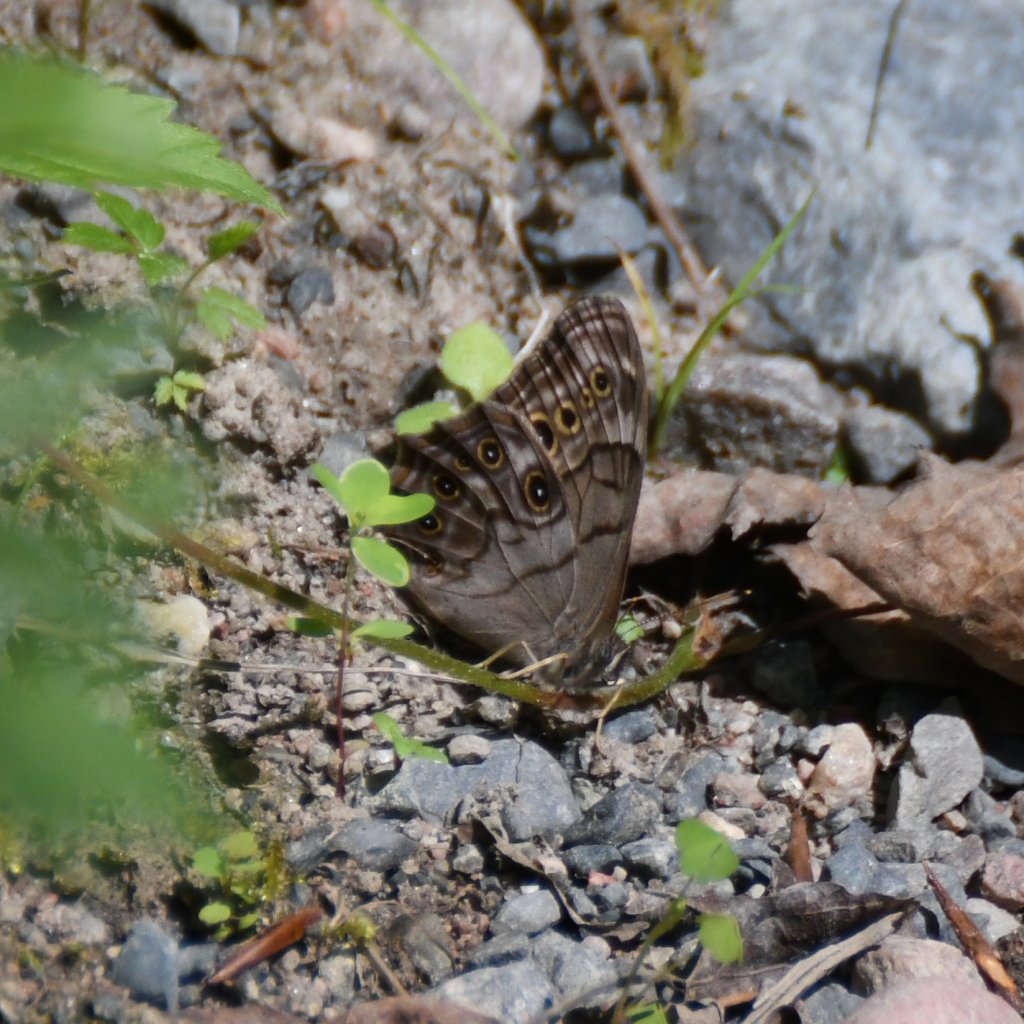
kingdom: Animalia
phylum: Arthropoda
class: Insecta
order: Lepidoptera
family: Nymphalidae
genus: Lethe
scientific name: Lethe anthedon
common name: Northern Pearly-Eye
